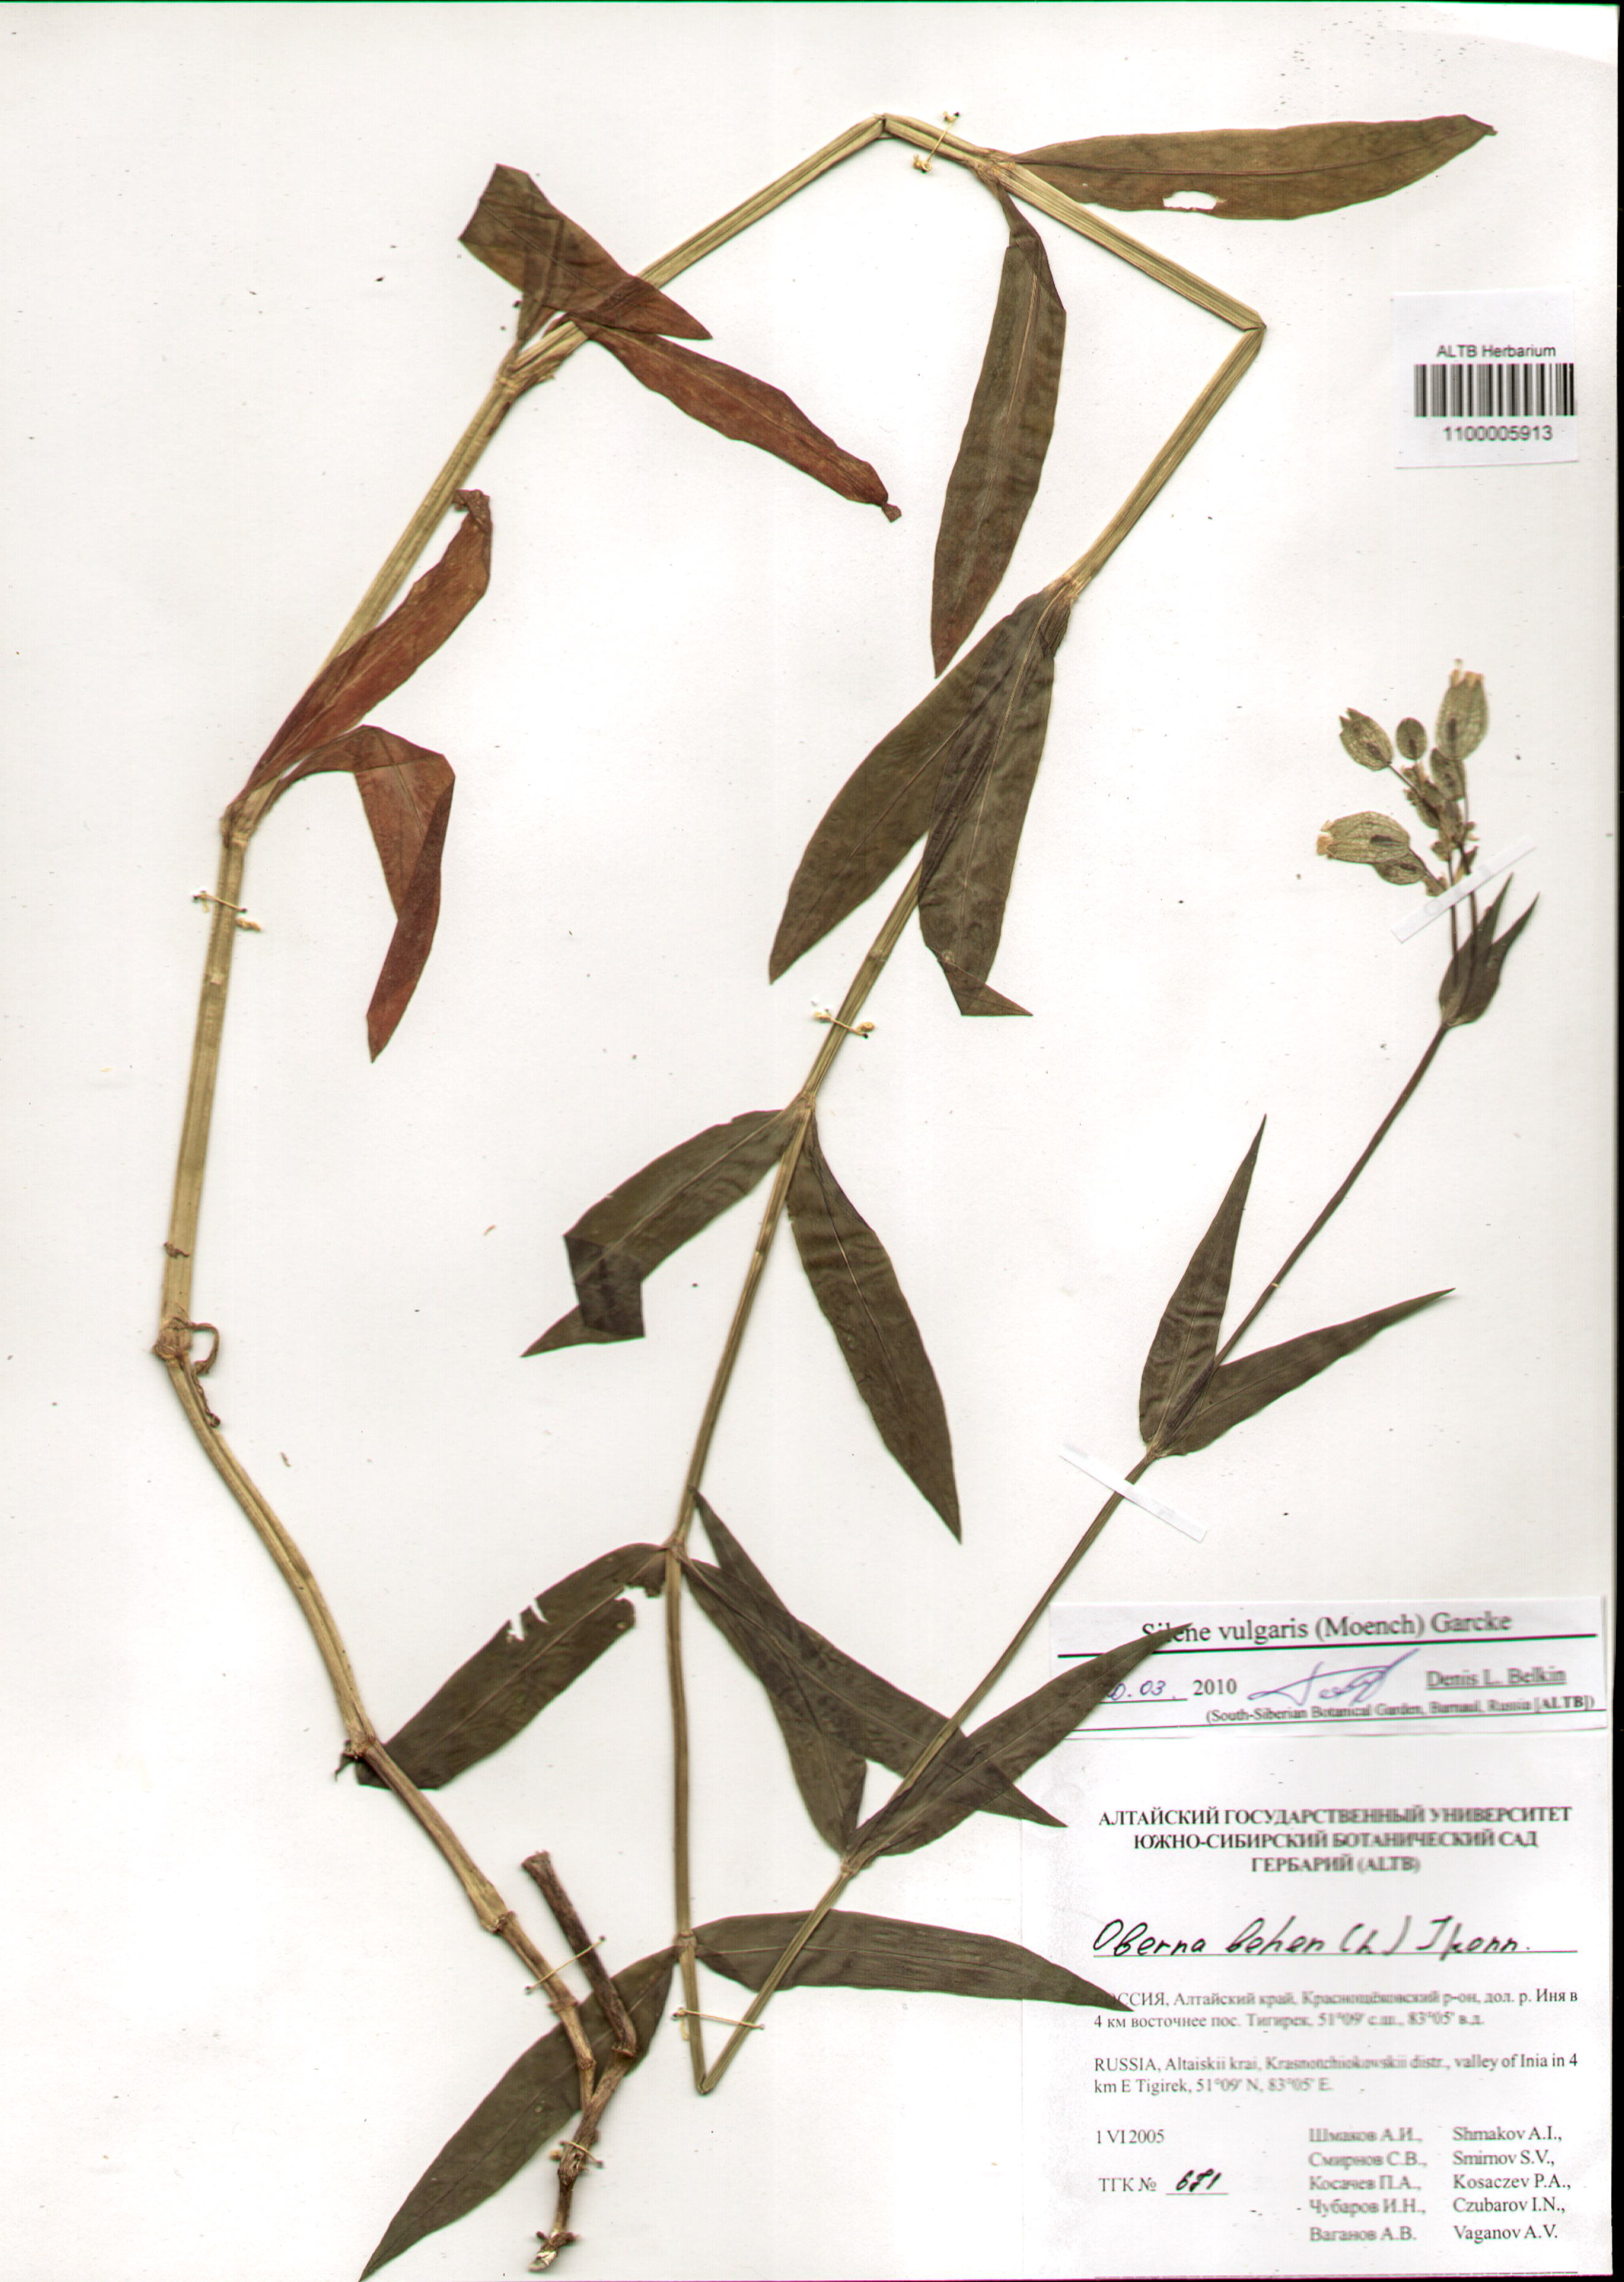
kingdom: Plantae
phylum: Tracheophyta
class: Magnoliopsida
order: Caryophyllales
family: Caryophyllaceae
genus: Silene
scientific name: Silene vulgaris
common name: Bladder campion
